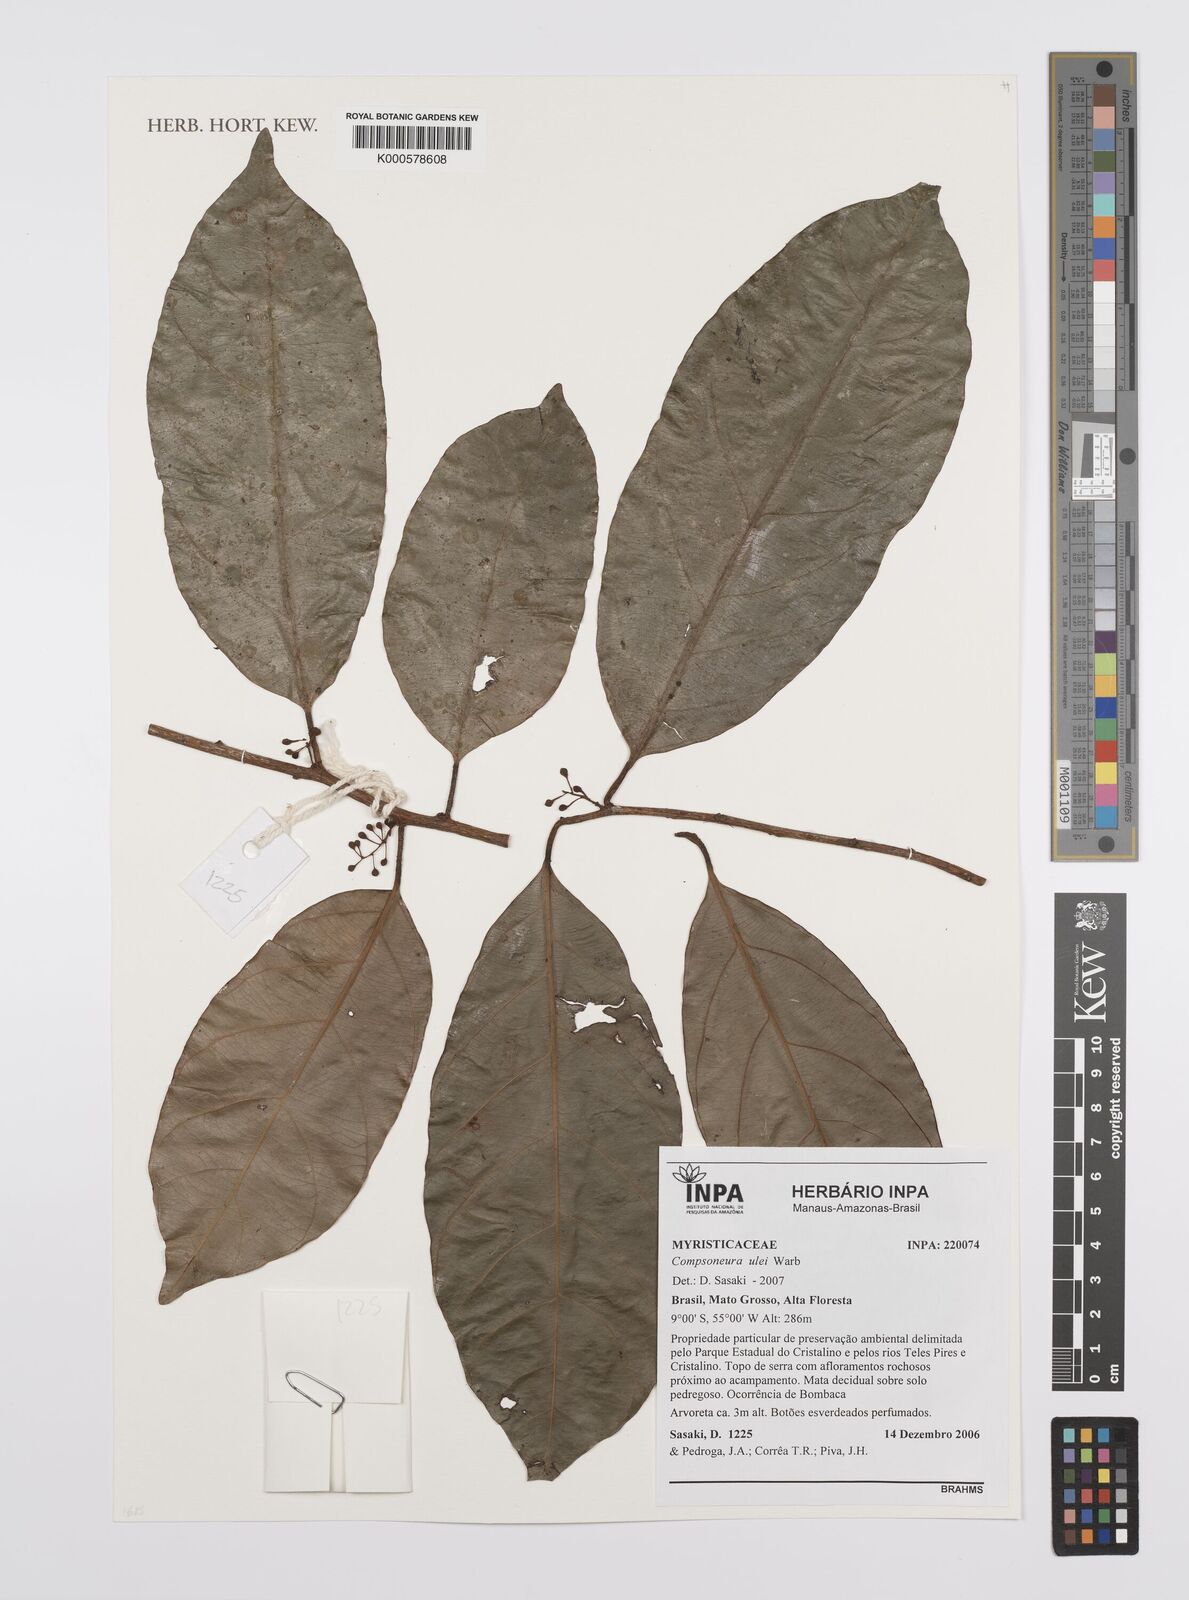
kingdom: Plantae
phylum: Tracheophyta
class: Magnoliopsida
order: Magnoliales
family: Myristicaceae
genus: Compsoneura
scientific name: Compsoneura ulei
